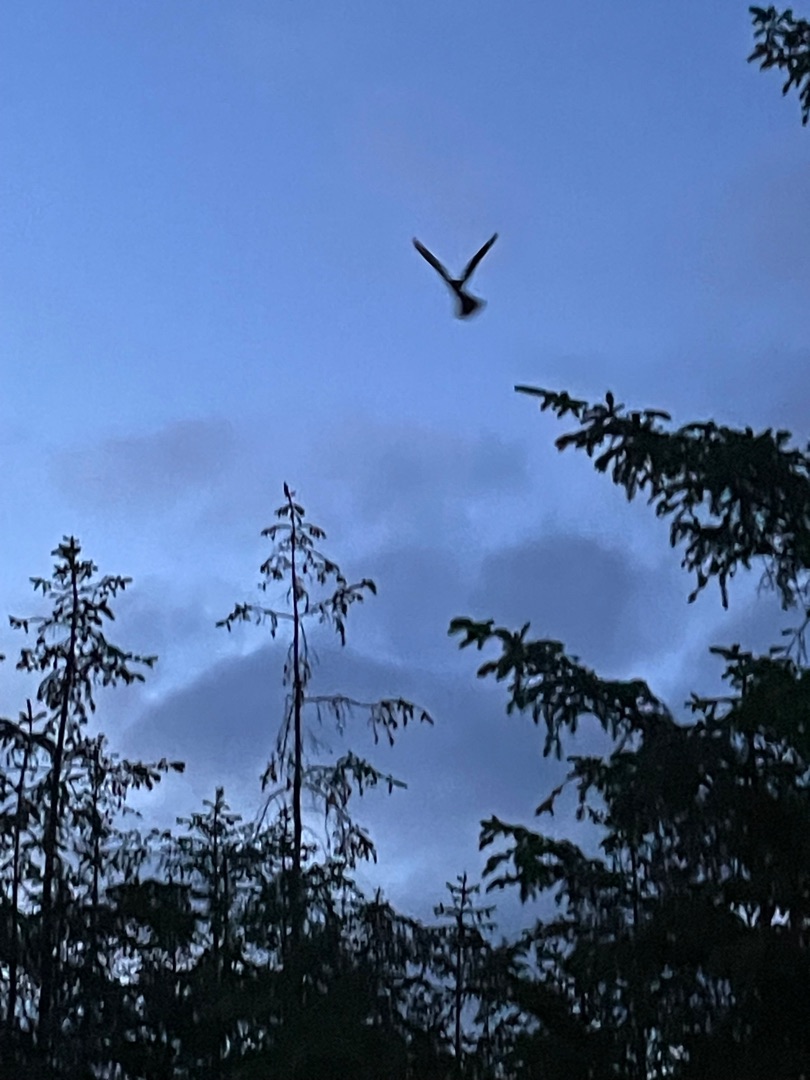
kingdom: Animalia
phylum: Chordata
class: Aves
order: Caprimulgiformes
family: Caprimulgidae
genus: Caprimulgus
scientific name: Caprimulgus europaeus
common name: Natravn
